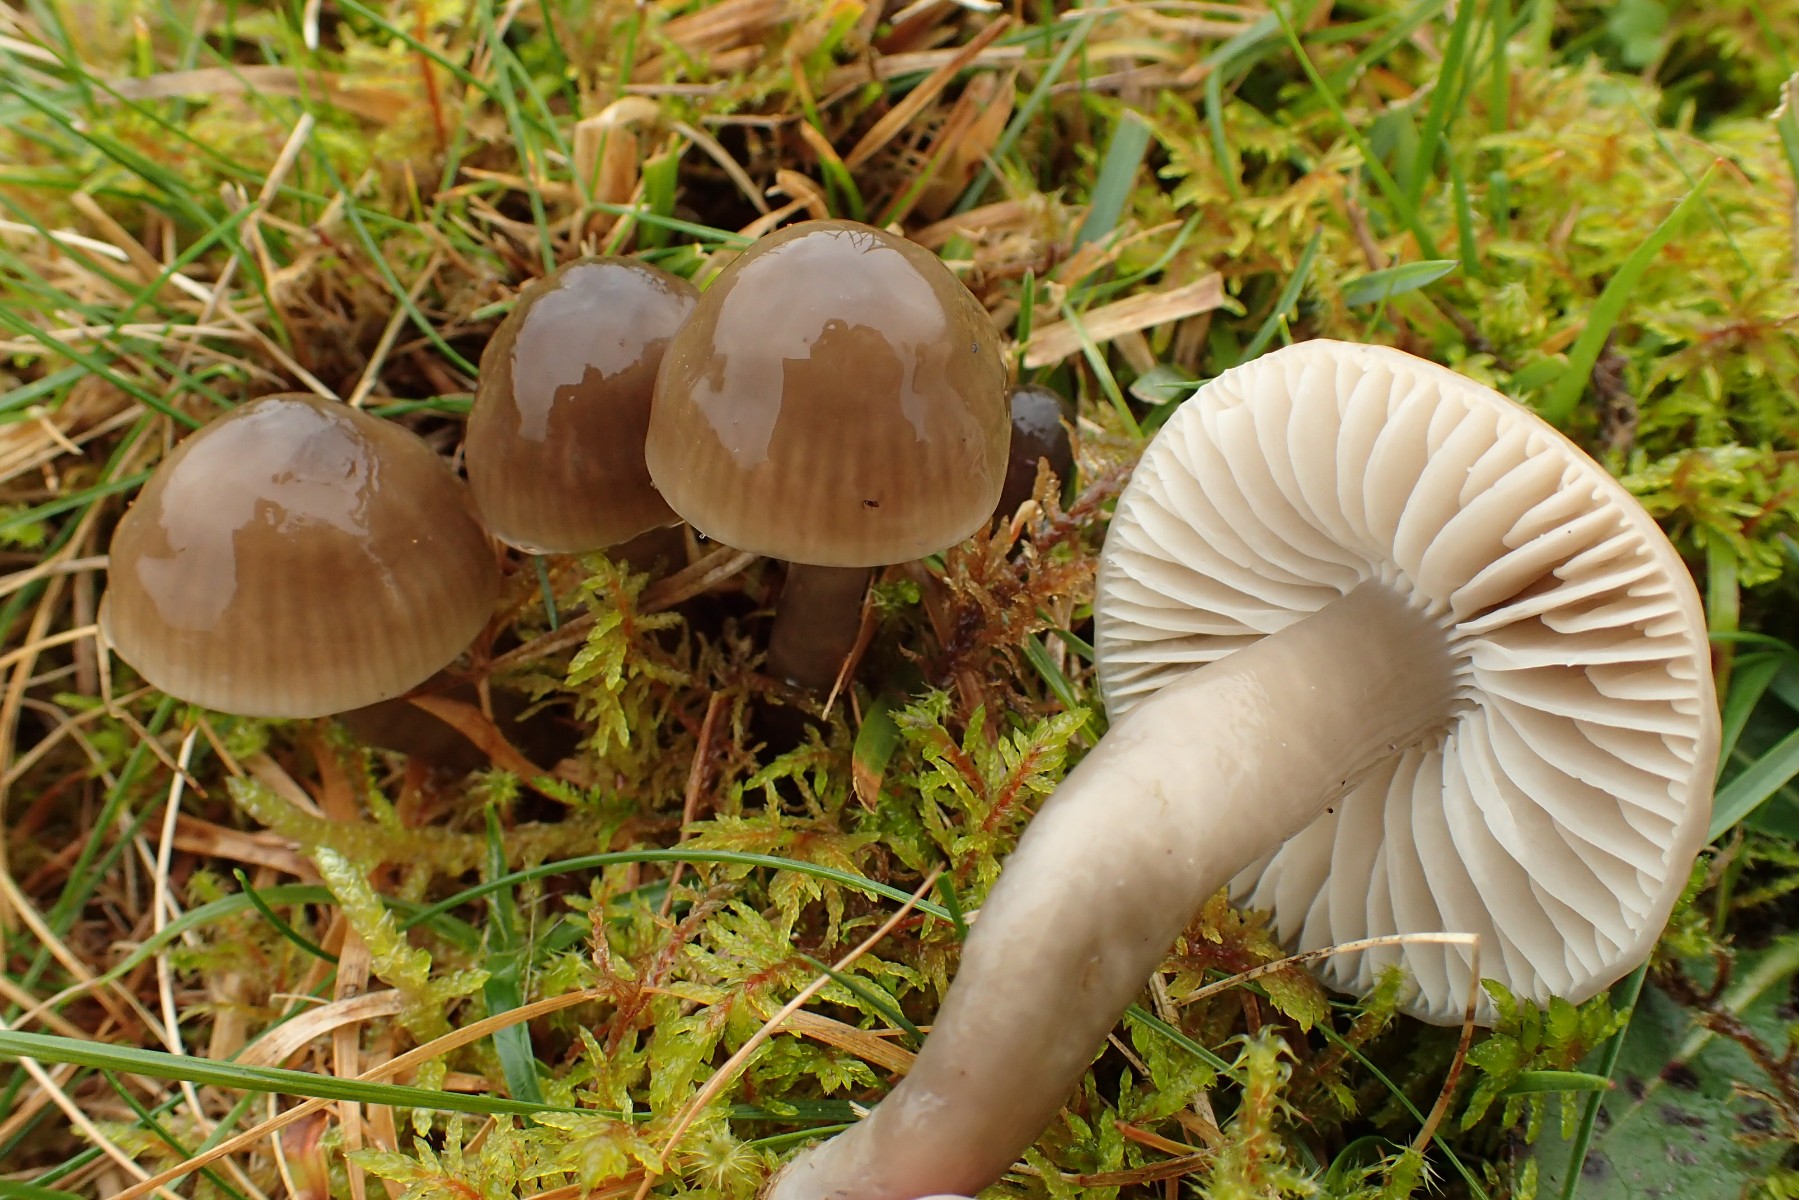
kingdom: Fungi
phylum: Basidiomycota
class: Agaricomycetes
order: Agaricales
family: Hygrophoraceae
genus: Gliophorus
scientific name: Gliophorus irrigatus
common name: slimet vokshat
